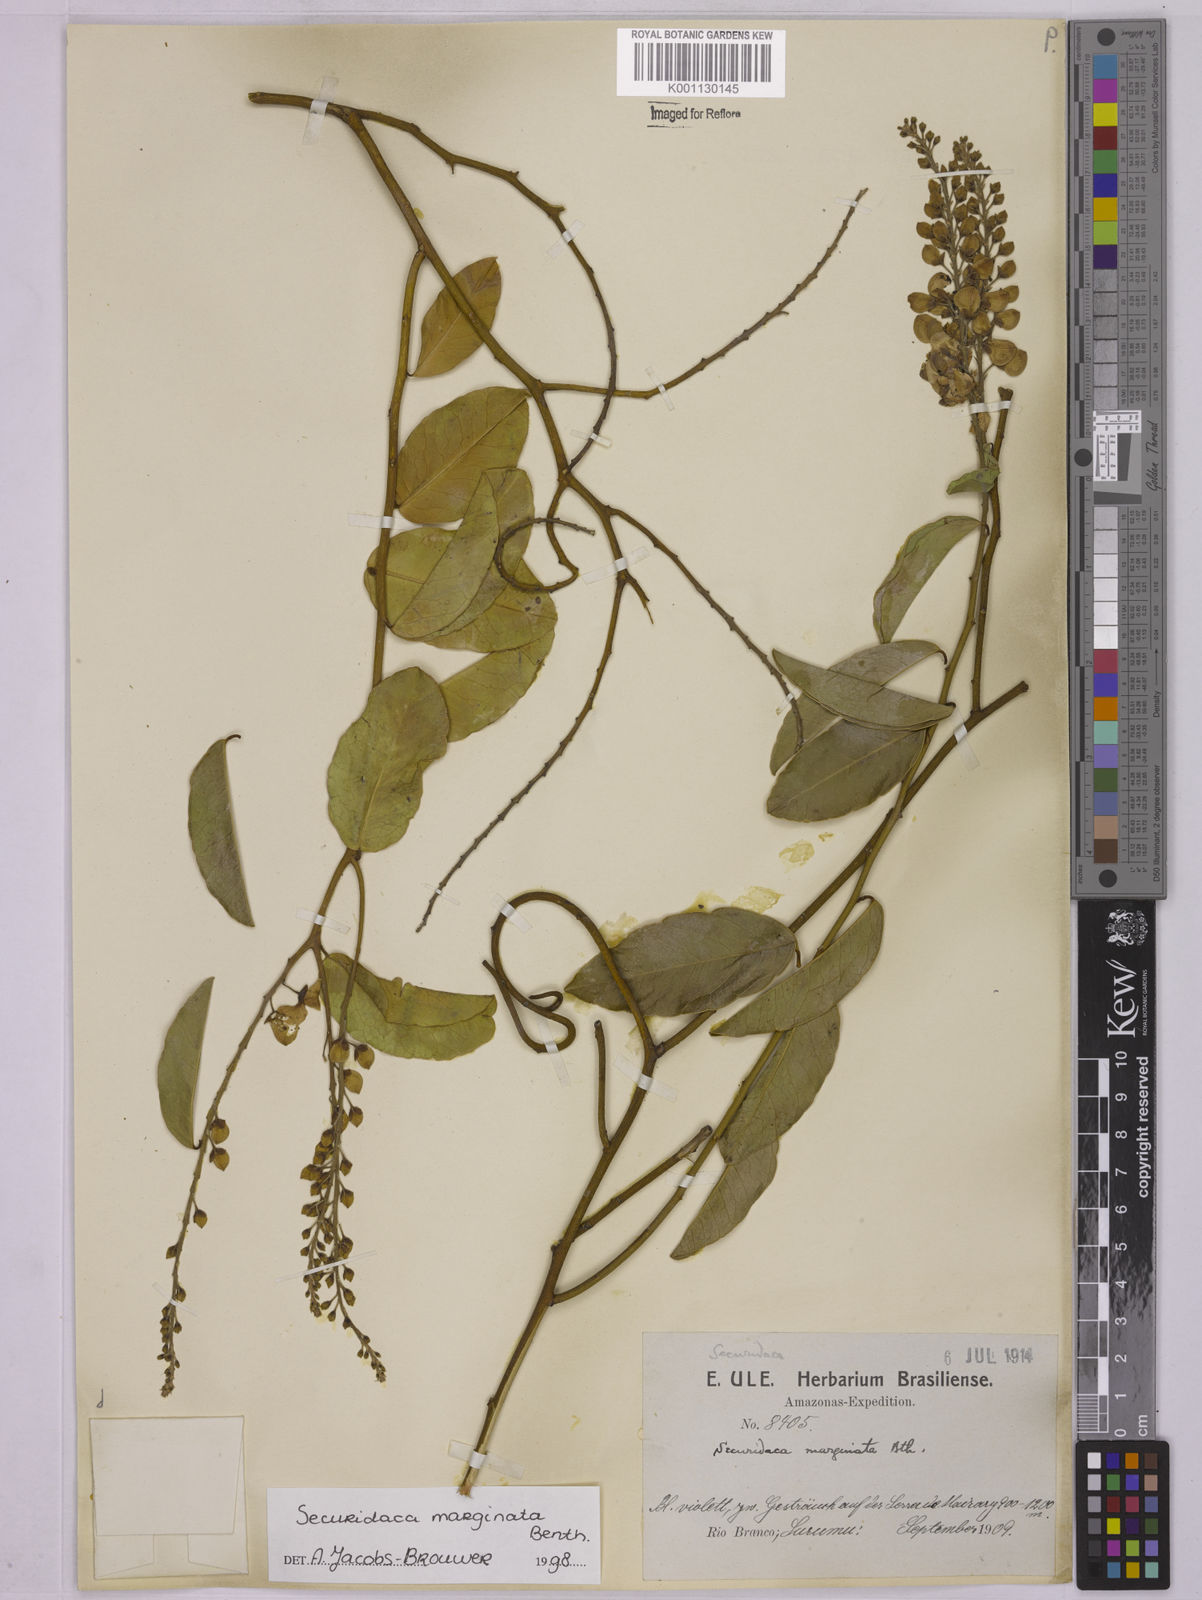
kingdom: Plantae
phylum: Tracheophyta
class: Magnoliopsida
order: Fabales
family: Polygalaceae
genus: Securidaca
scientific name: Securidaca marginata
